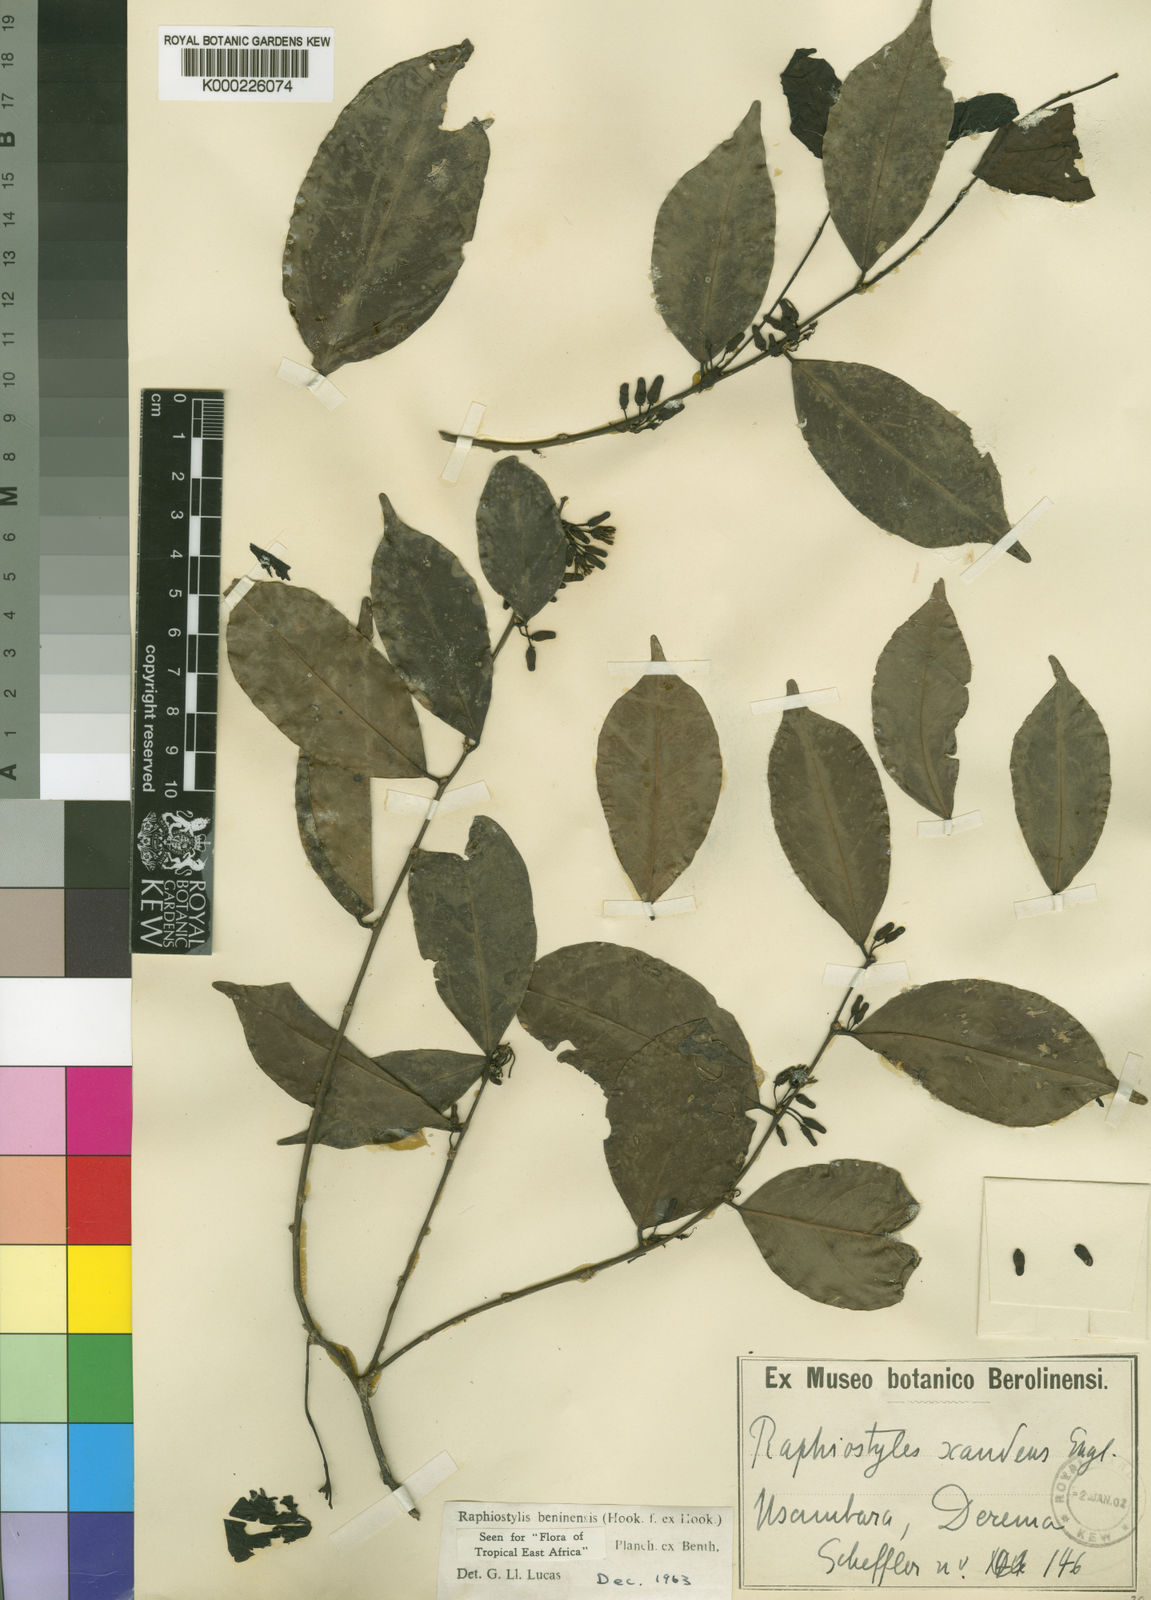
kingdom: Plantae
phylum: Tracheophyta
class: Magnoliopsida
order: Metteniusales
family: Metteniusaceae
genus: Rhaphiostylis
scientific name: Rhaphiostylis beninensis
